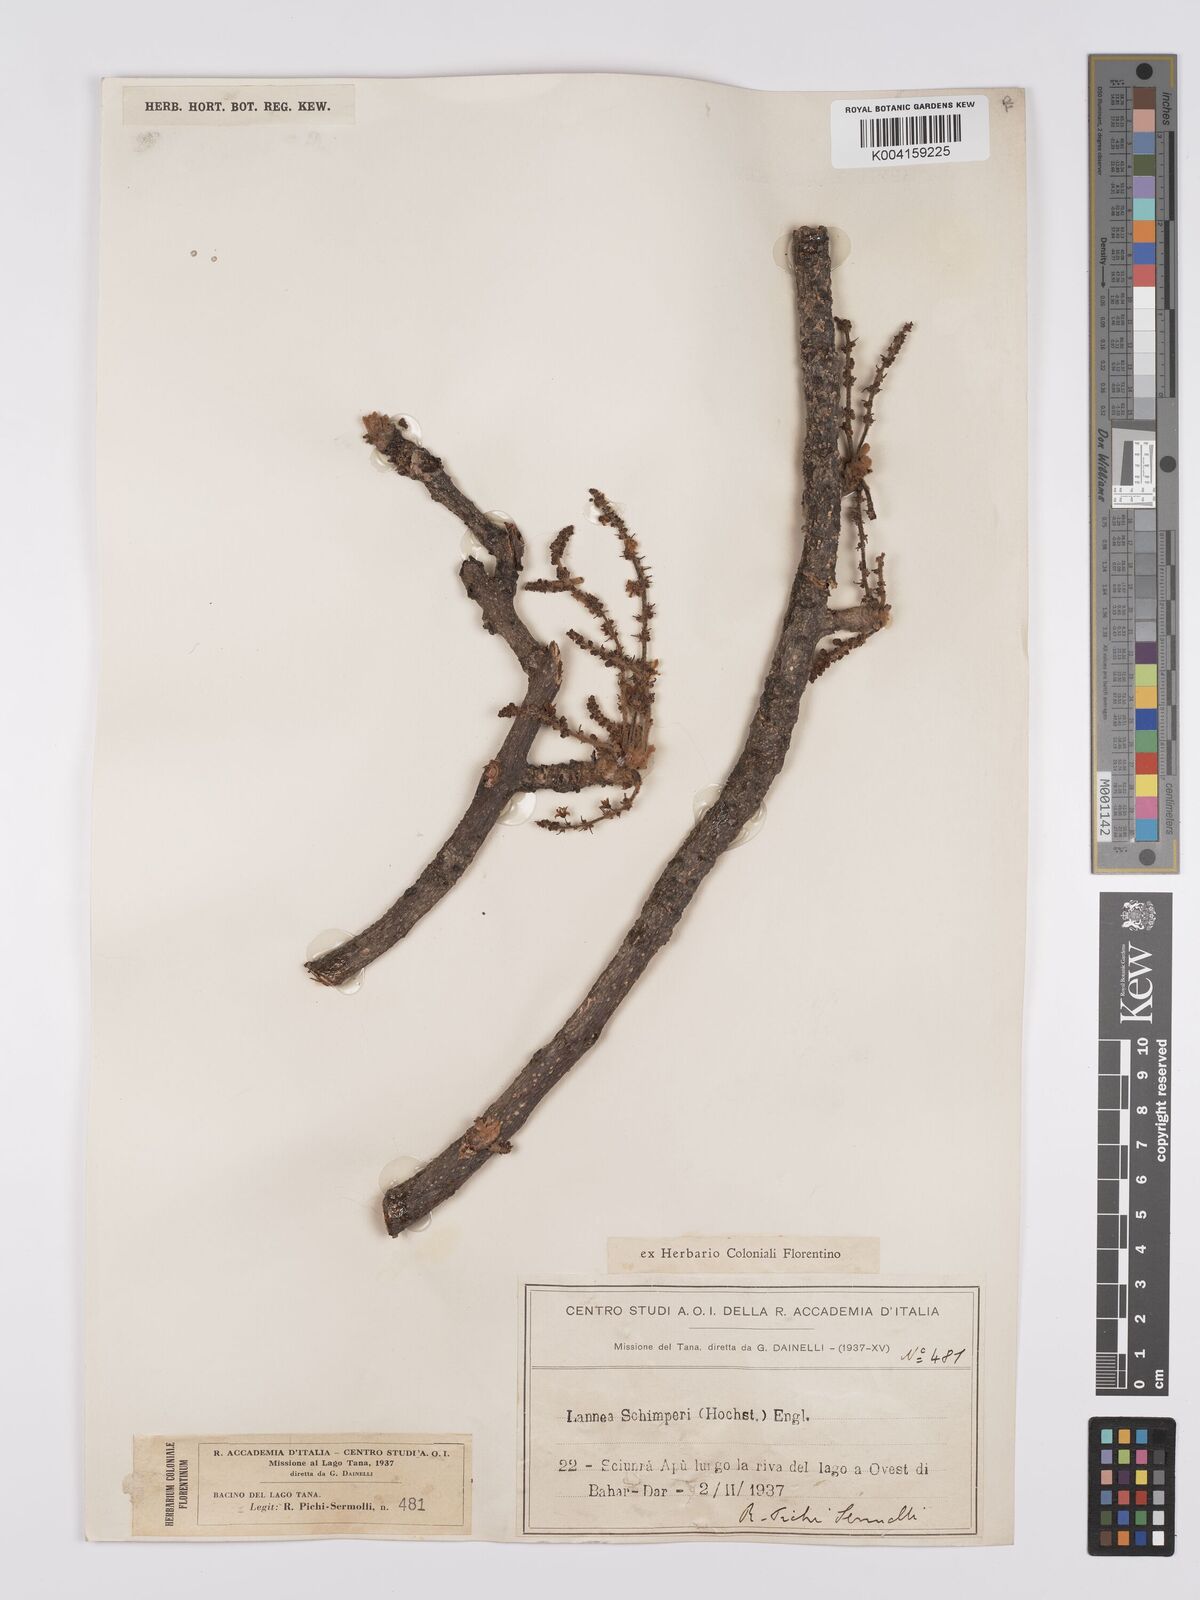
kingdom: Plantae
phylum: Tracheophyta
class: Magnoliopsida
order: Sapindales
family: Anacardiaceae
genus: Lannea
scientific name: Lannea schimperi
